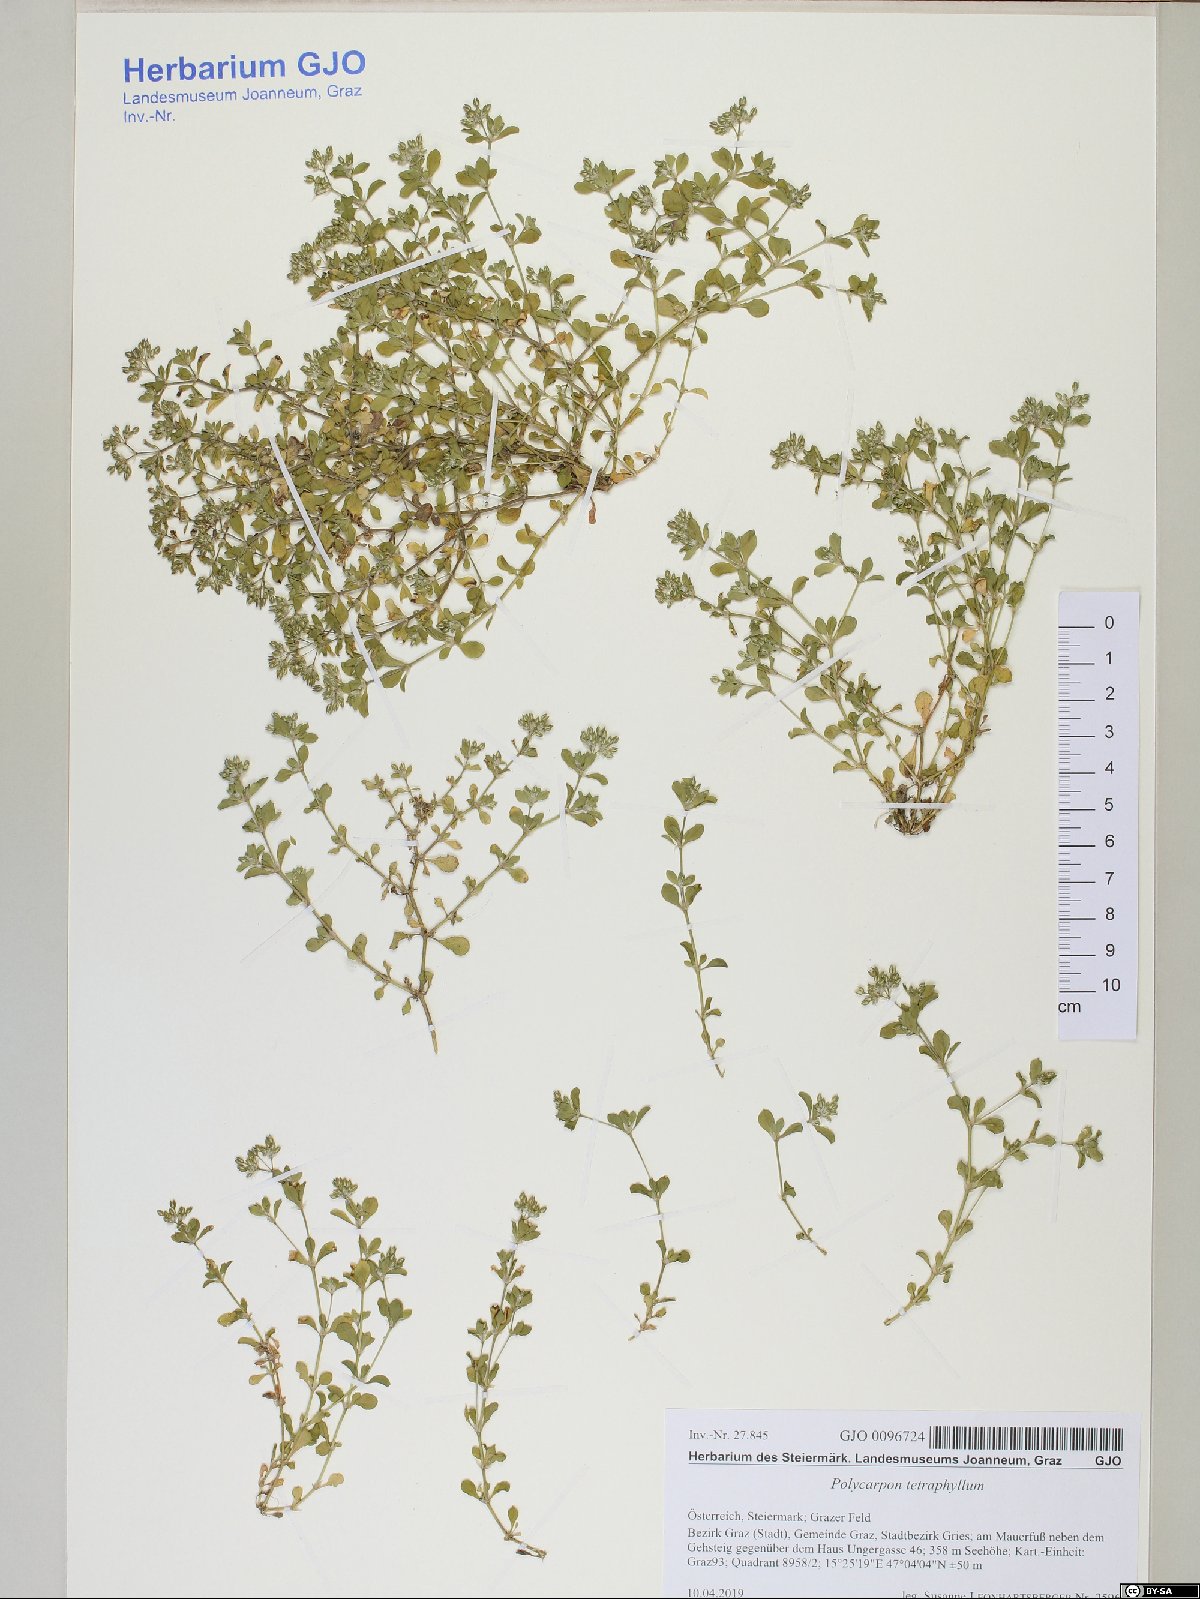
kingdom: Plantae
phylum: Tracheophyta
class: Magnoliopsida
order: Caryophyllales
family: Caryophyllaceae
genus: Polycarpon
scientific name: Polycarpon tetraphyllum
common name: Four-leaved all-seed
